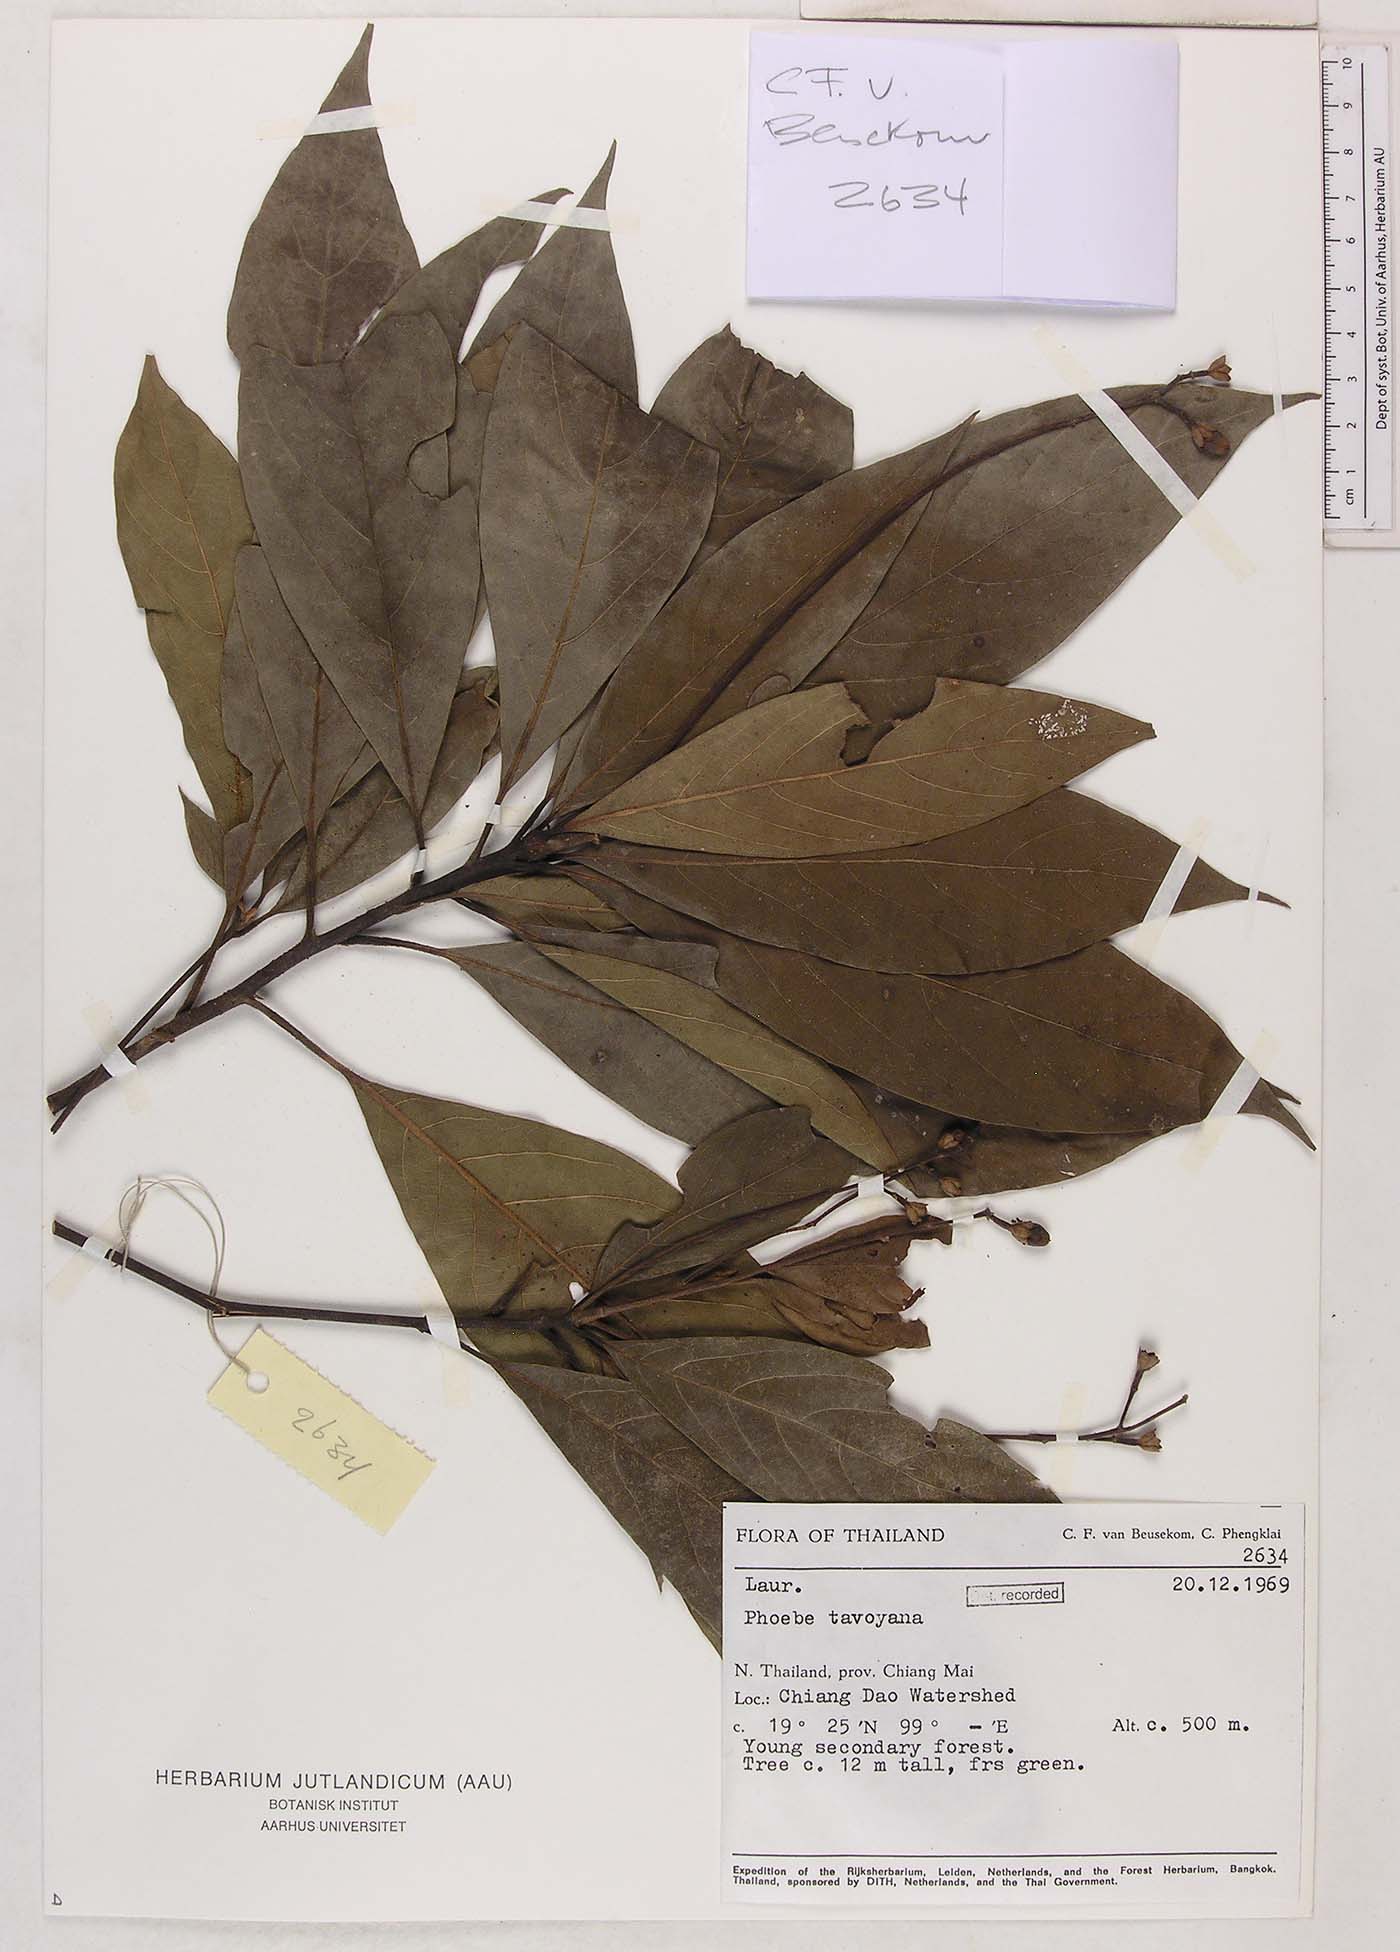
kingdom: Plantae
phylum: Tracheophyta
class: Magnoliopsida
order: Laurales
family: Lauraceae
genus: Phoebe
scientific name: Phoebe tavoyana
